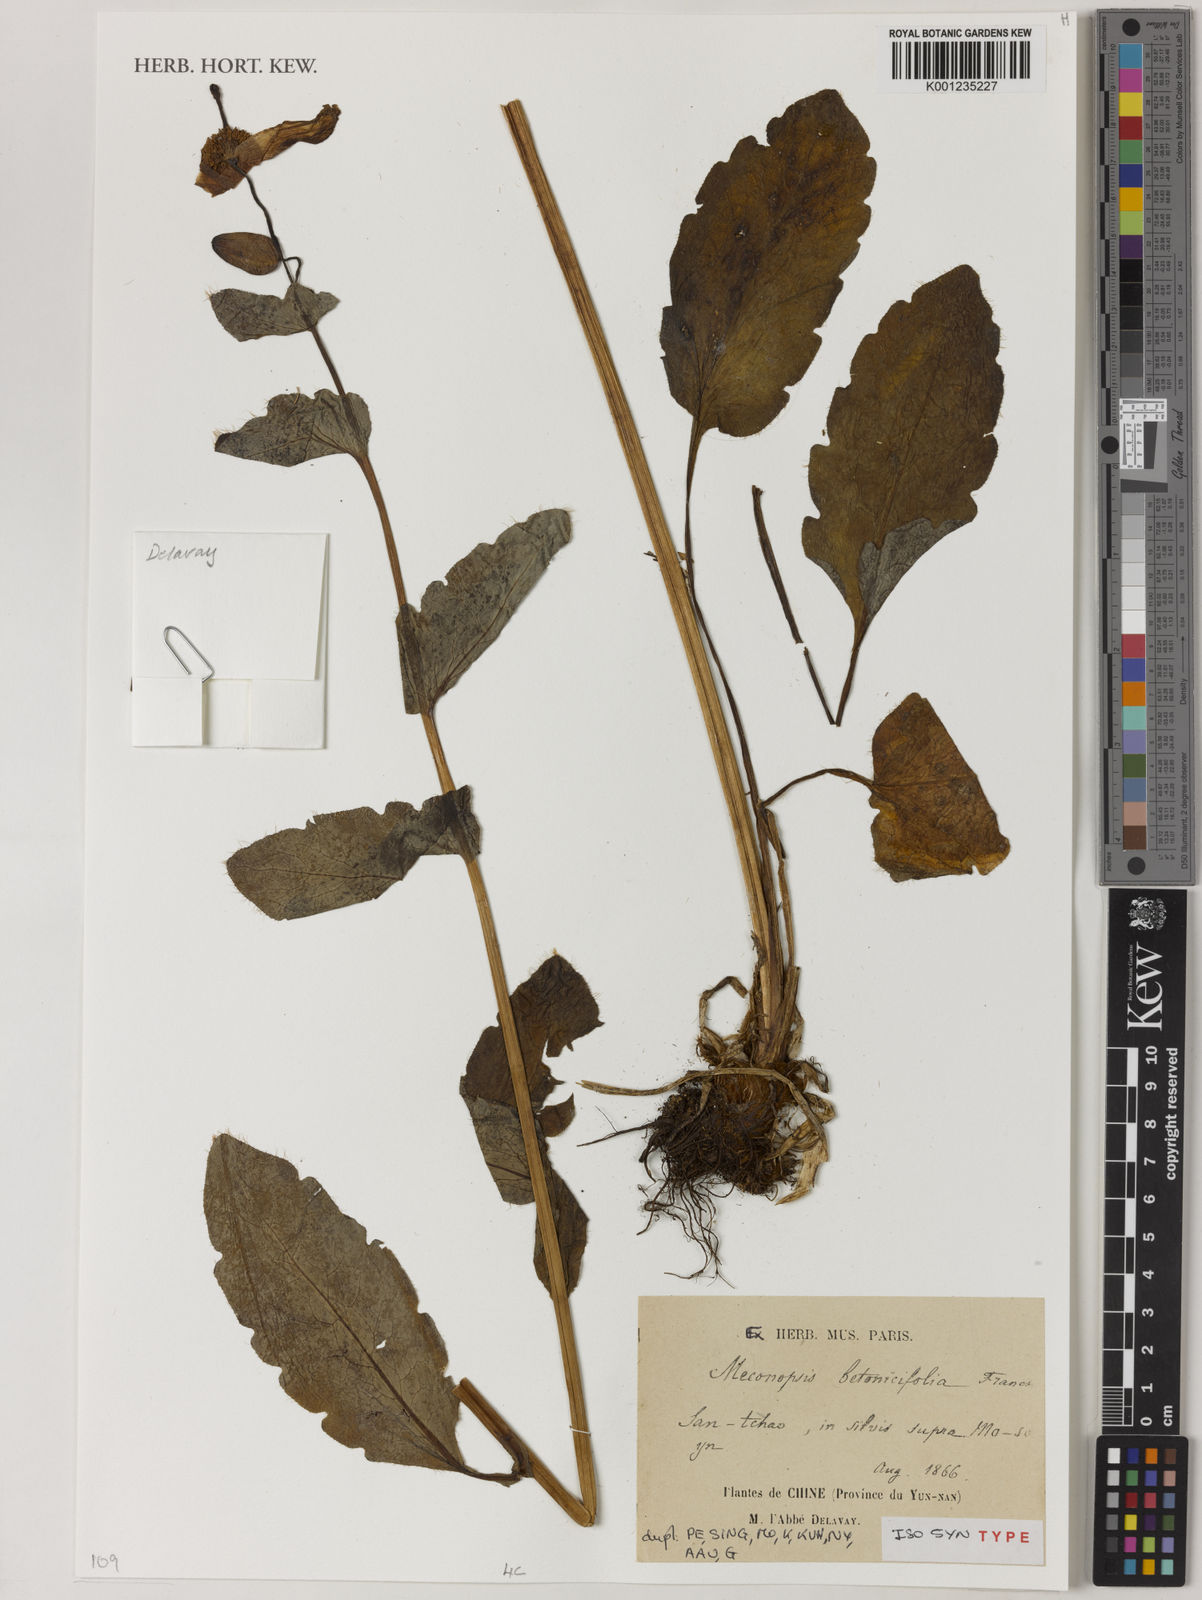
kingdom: Plantae
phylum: Tracheophyta
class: Magnoliopsida
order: Ranunculales
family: Papaveraceae
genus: Cathcartia
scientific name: Cathcartia betonicifolia
